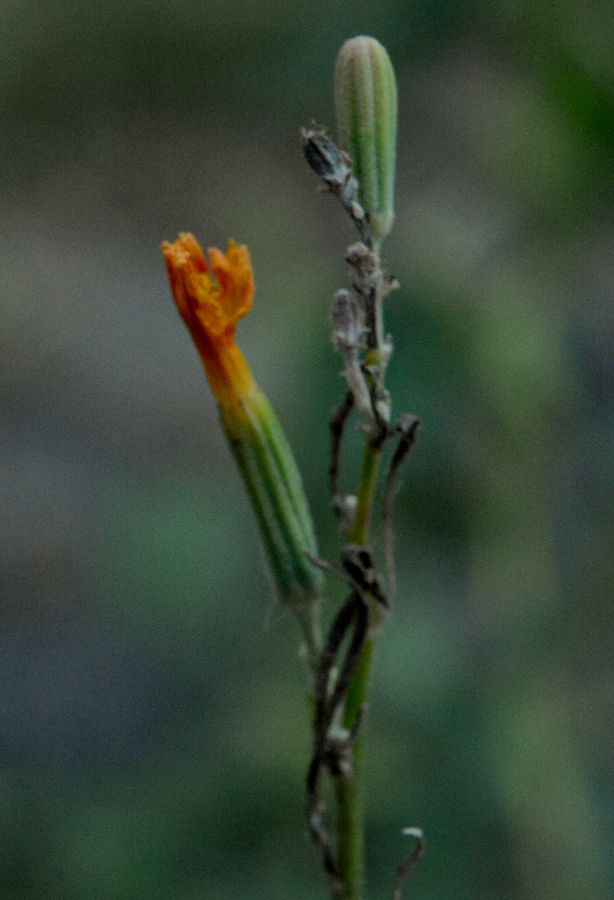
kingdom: Plantae
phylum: Tracheophyta
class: Magnoliopsida
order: Asterales
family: Asteraceae
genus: Chondrilla
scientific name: Chondrilla juncea
